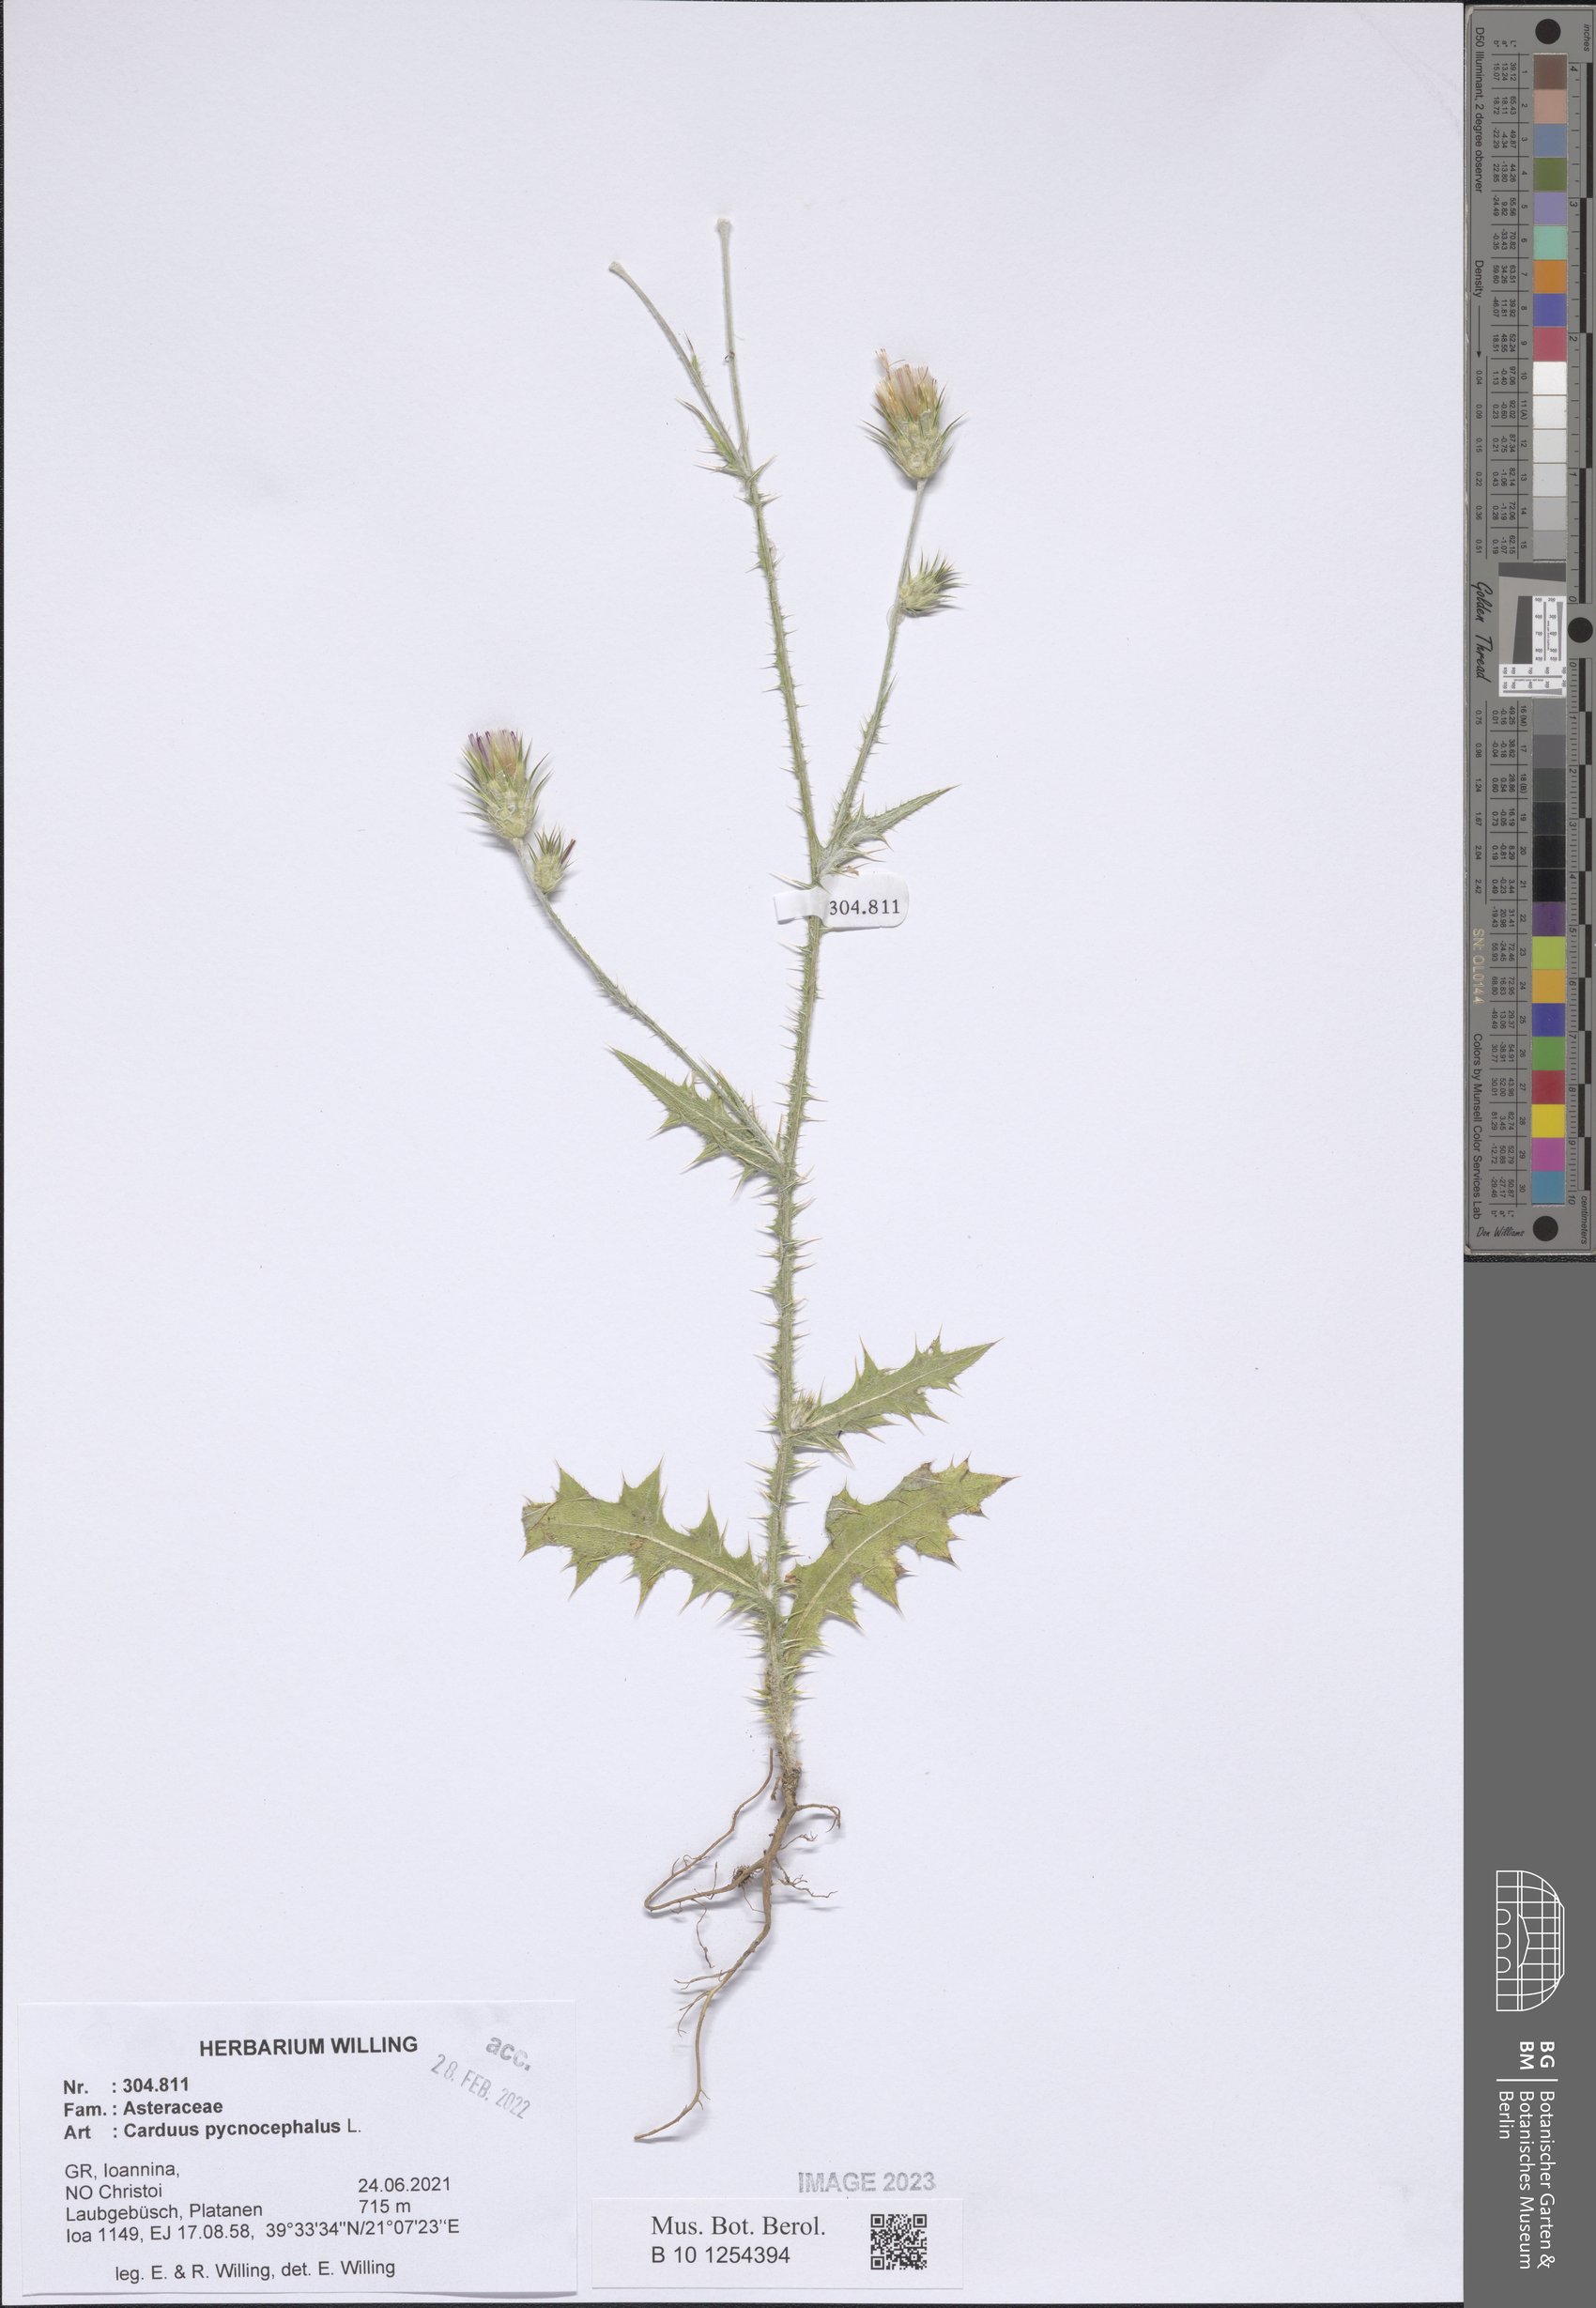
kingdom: Plantae
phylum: Tracheophyta
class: Magnoliopsida
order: Asterales
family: Asteraceae
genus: Carduus
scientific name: Carduus pycnocephalus
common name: Plymouth thistle
